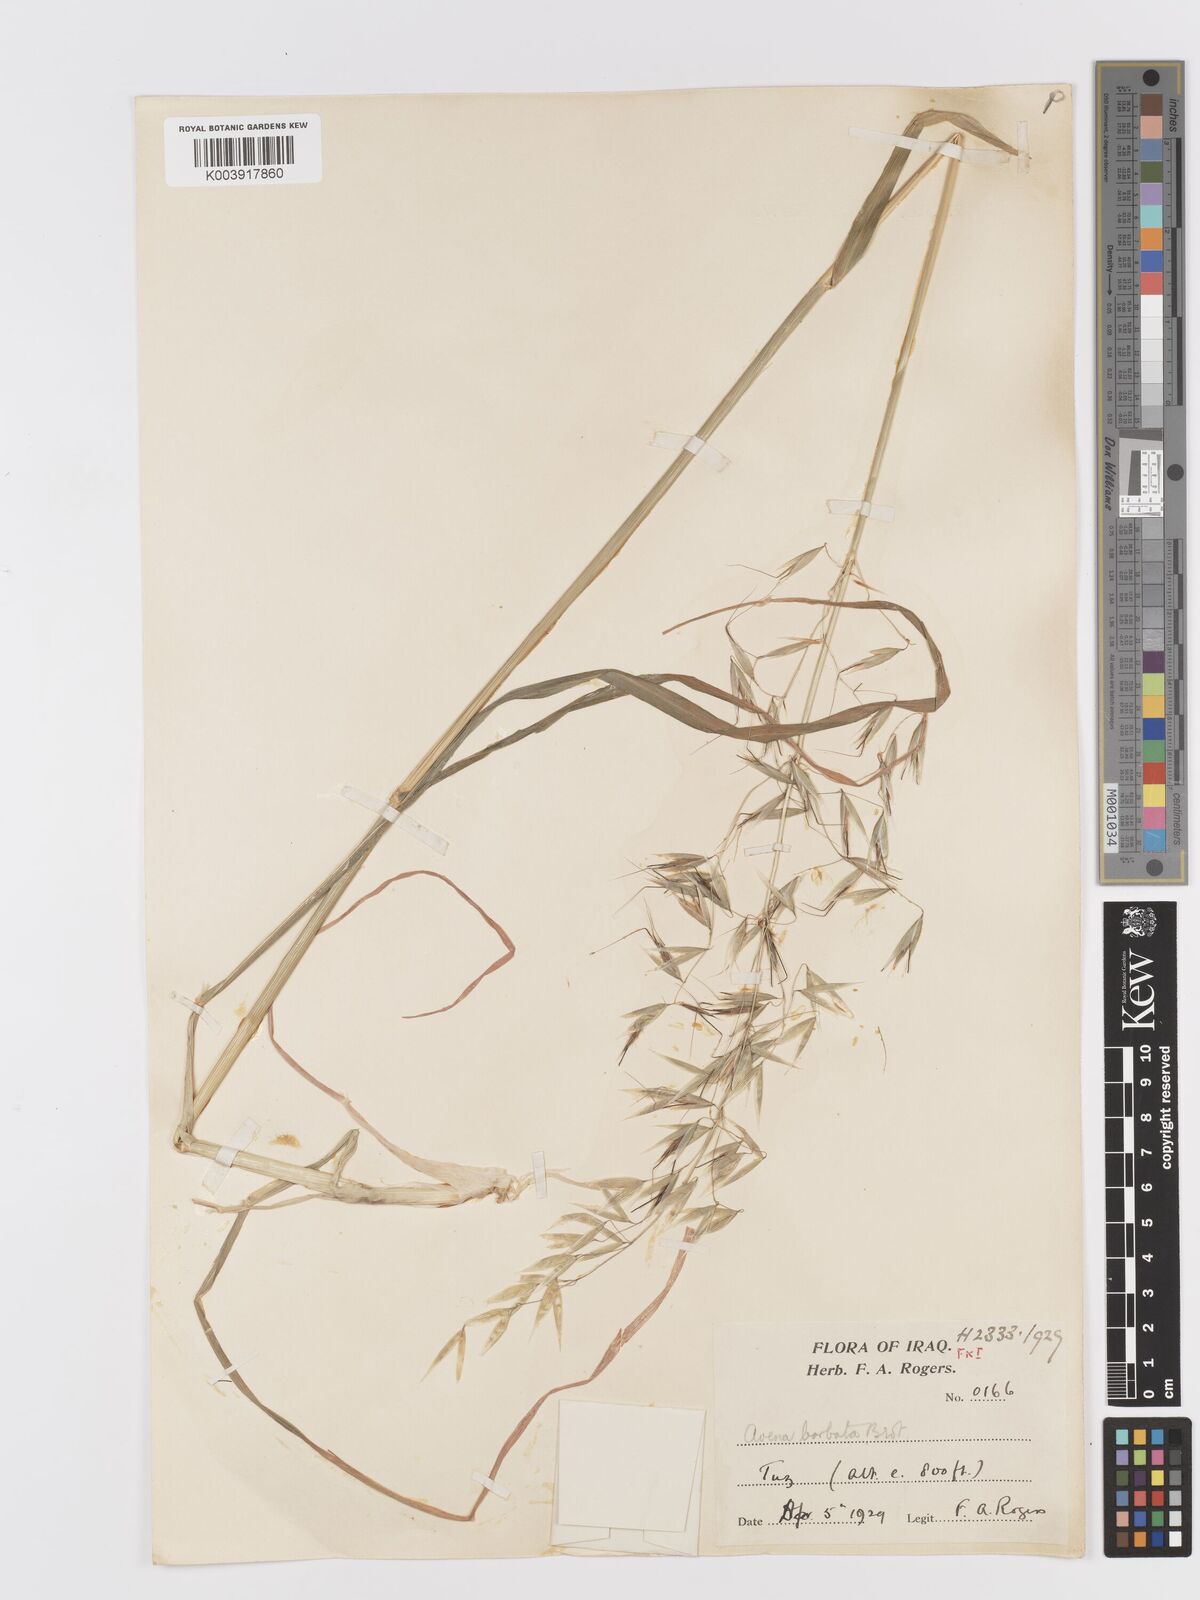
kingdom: Plantae
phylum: Tracheophyta
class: Liliopsida
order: Poales
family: Poaceae
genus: Avena
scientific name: Avena
